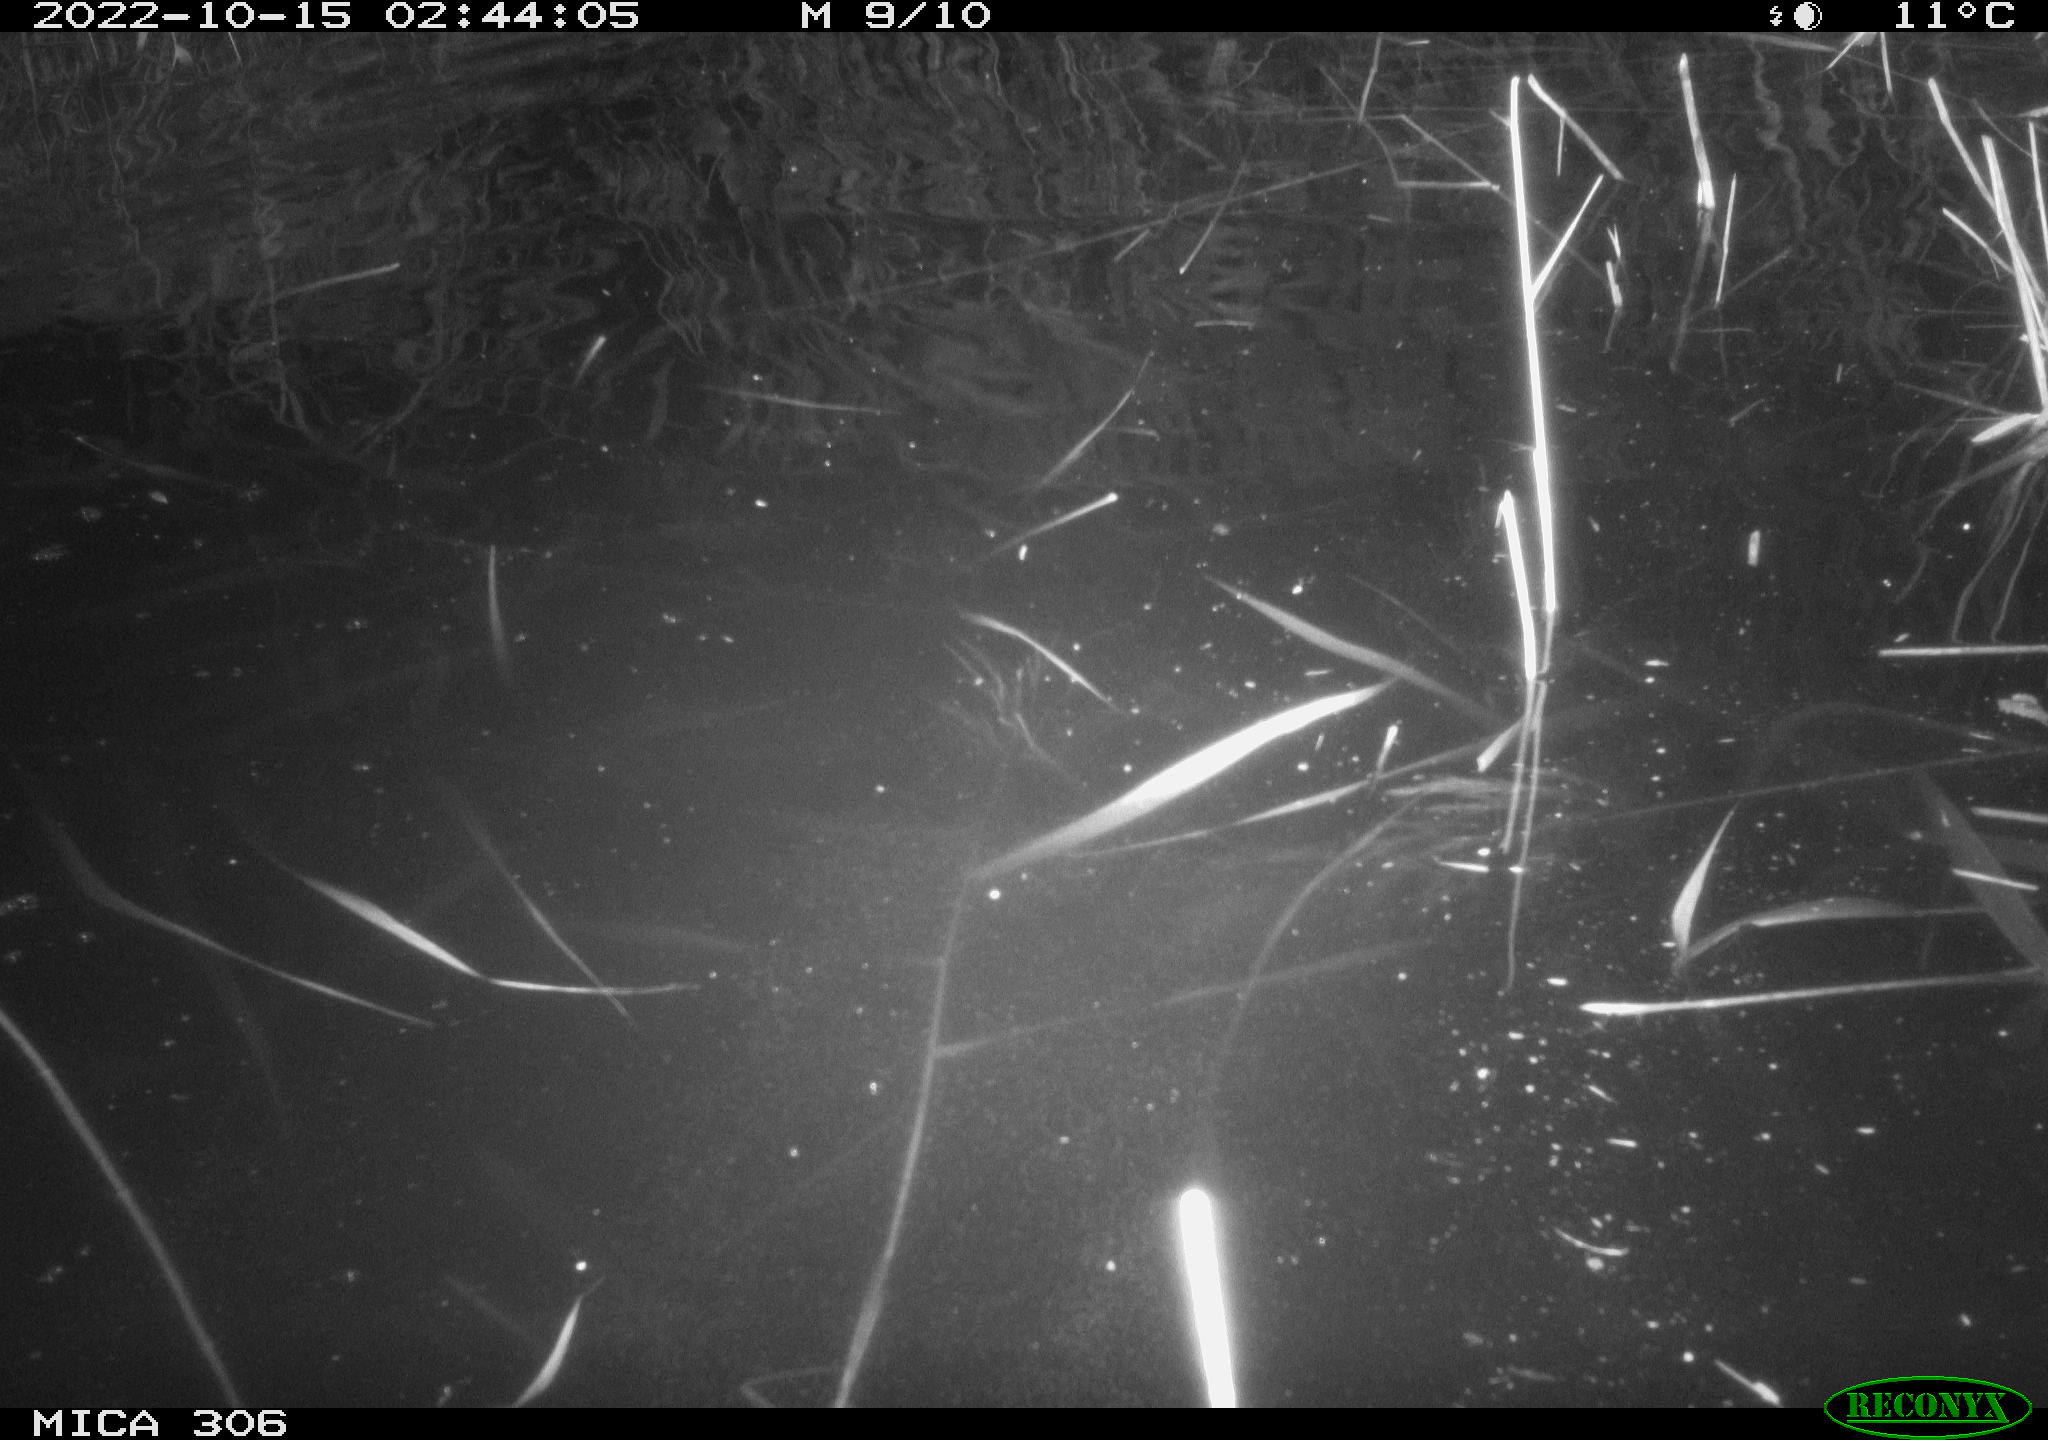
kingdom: Animalia
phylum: Chordata
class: Mammalia
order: Rodentia
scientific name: Rodentia
